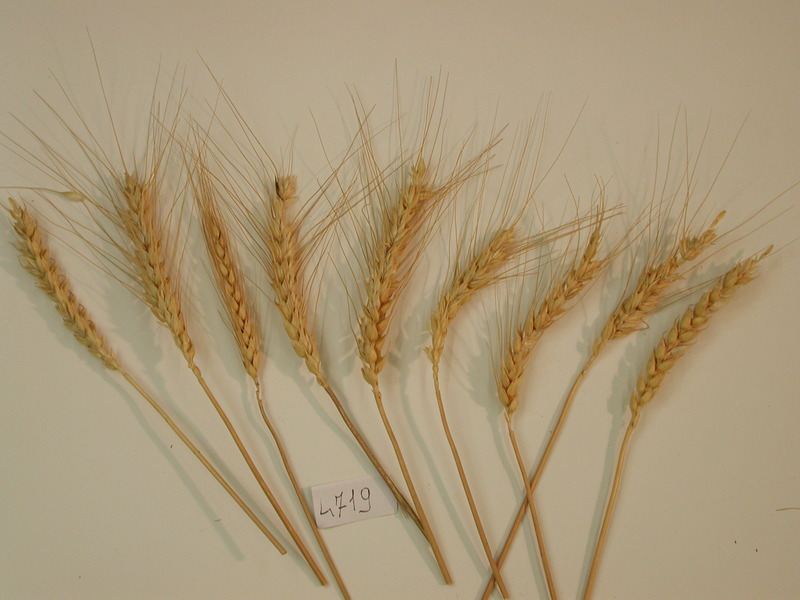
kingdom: Plantae
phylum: Tracheophyta
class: Liliopsida
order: Poales
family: Poaceae
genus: Triticum
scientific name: Triticum aestivum
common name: Wheat
